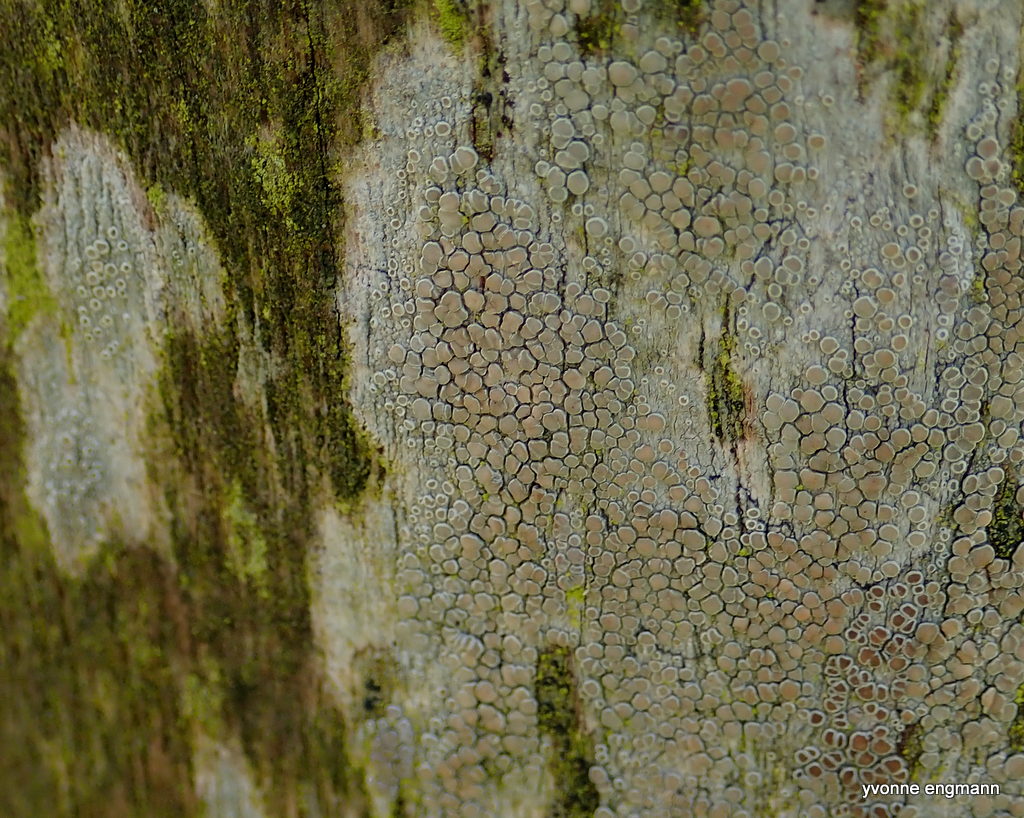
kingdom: Fungi
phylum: Ascomycota
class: Lecanoromycetes
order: Lecanorales
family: Lecanoraceae
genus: Lecanora
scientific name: Lecanora chlarotera
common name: brun kantskivelav
